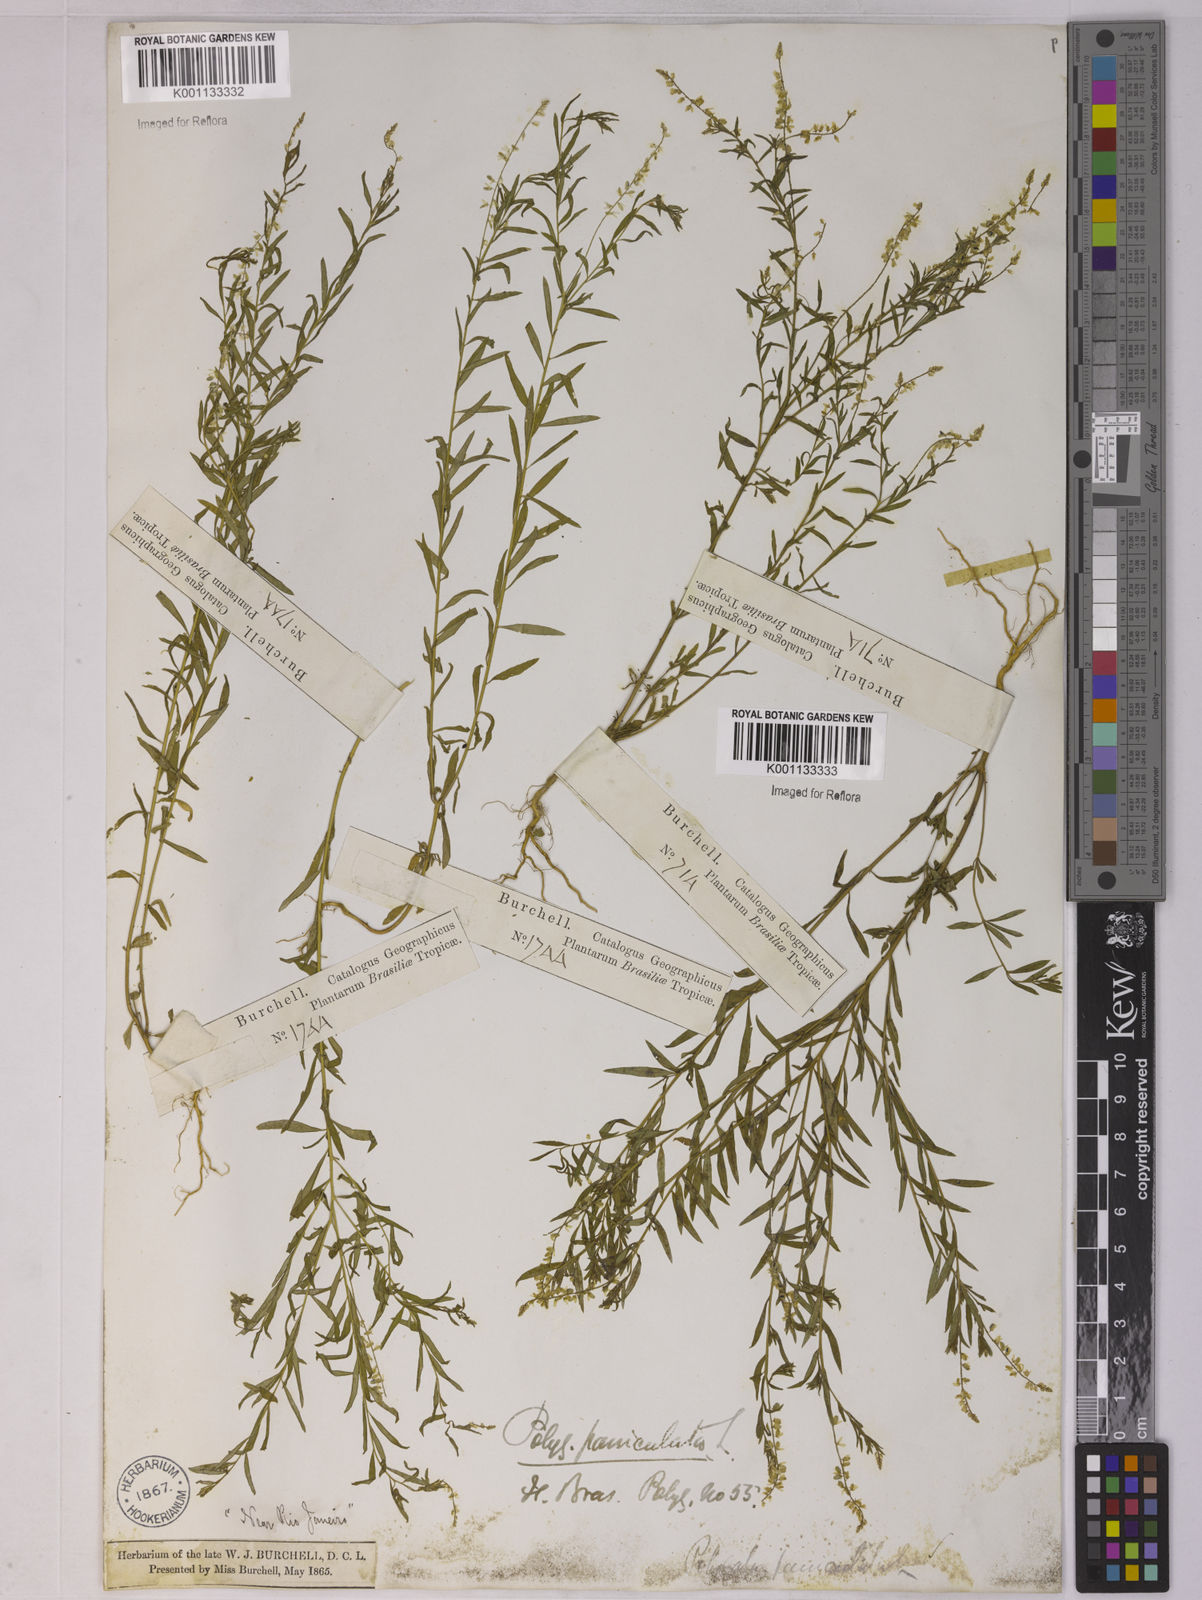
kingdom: Plantae
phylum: Tracheophyta
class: Magnoliopsida
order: Fabales
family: Polygalaceae
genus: Polygala
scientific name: Polygala paniculata
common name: Orosne
